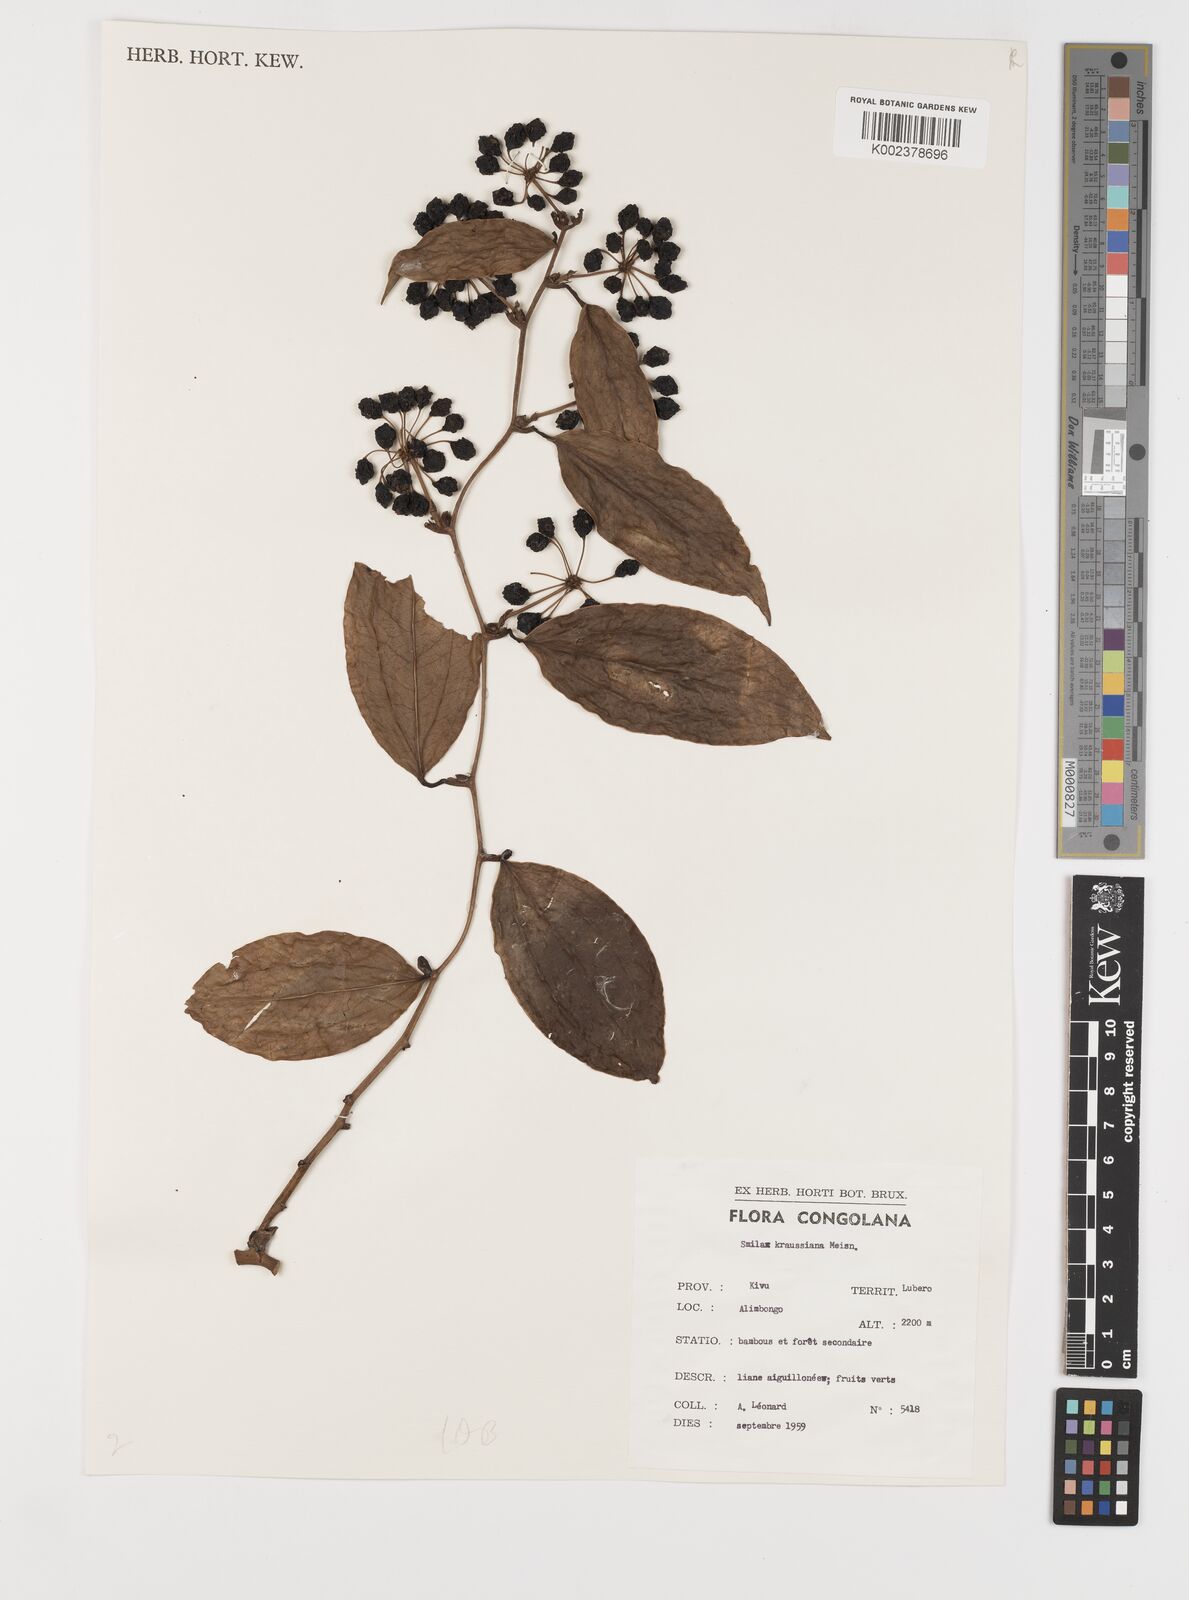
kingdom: Plantae
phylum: Tracheophyta
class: Liliopsida
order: Liliales
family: Smilacaceae
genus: Smilax
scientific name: Smilax anceps
